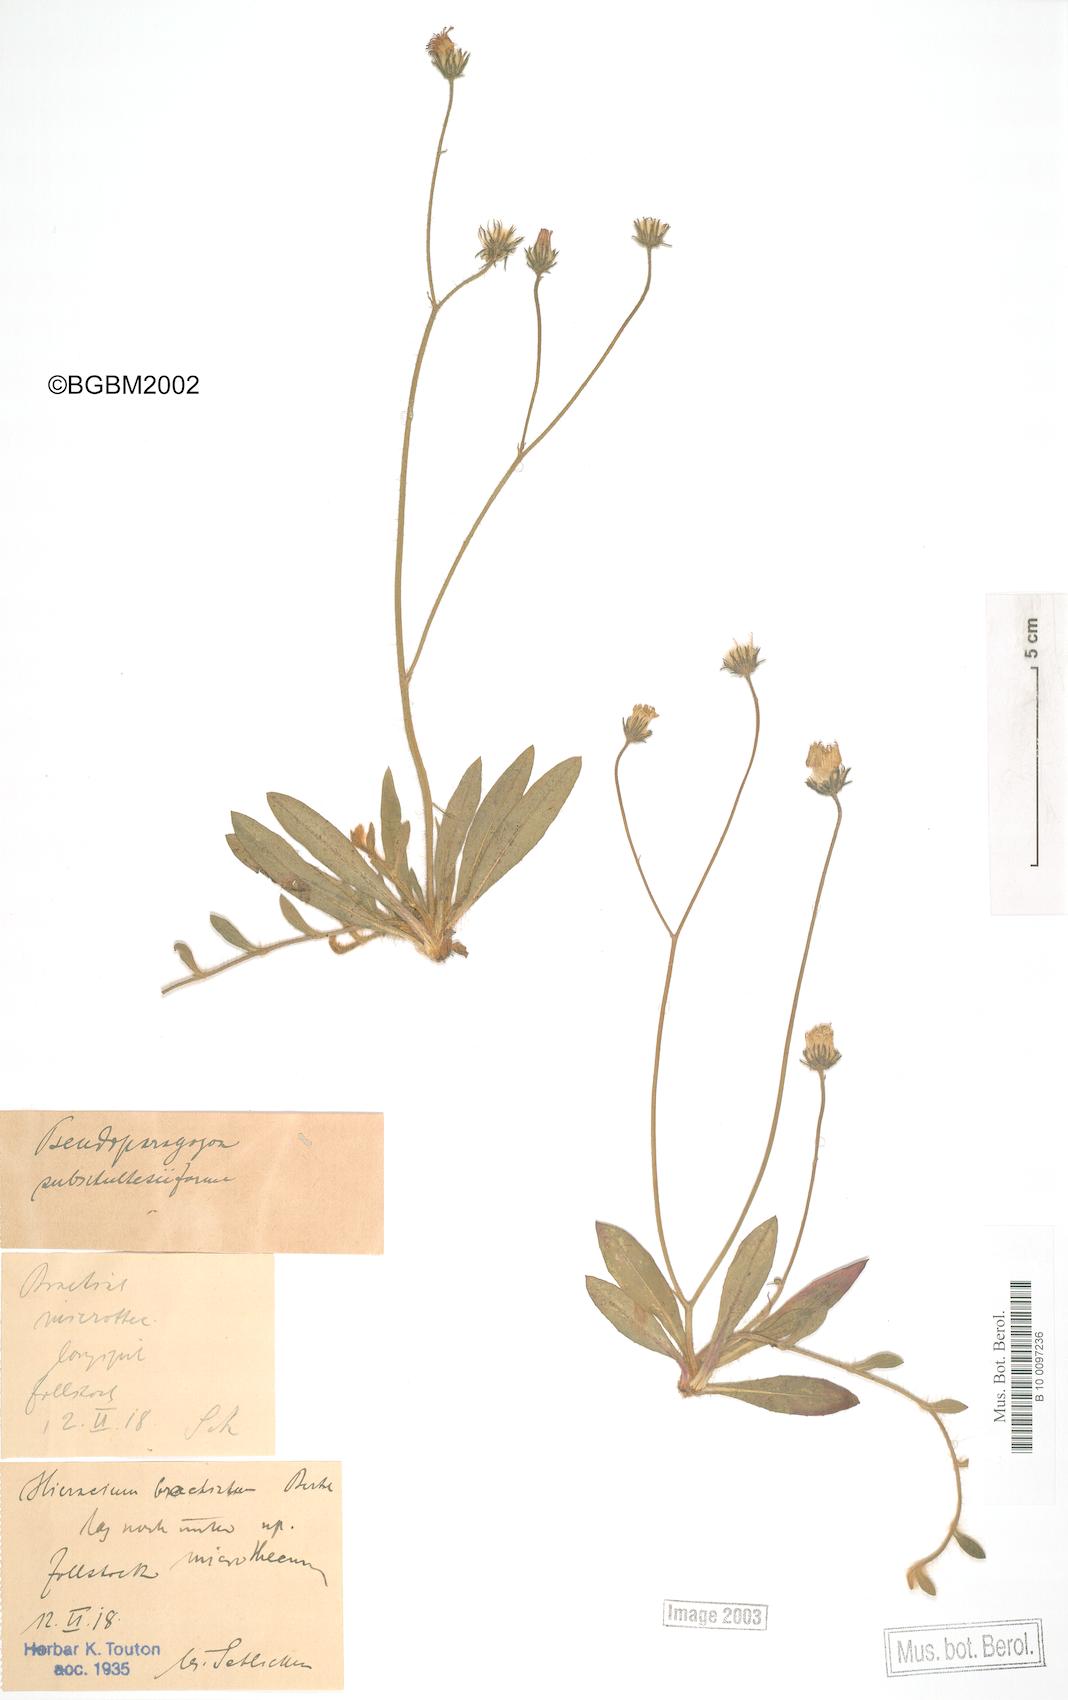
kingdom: Plantae
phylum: Tracheophyta
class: Magnoliopsida
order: Asterales
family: Asteraceae
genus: Pilosella
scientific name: Pilosella acutifolia
